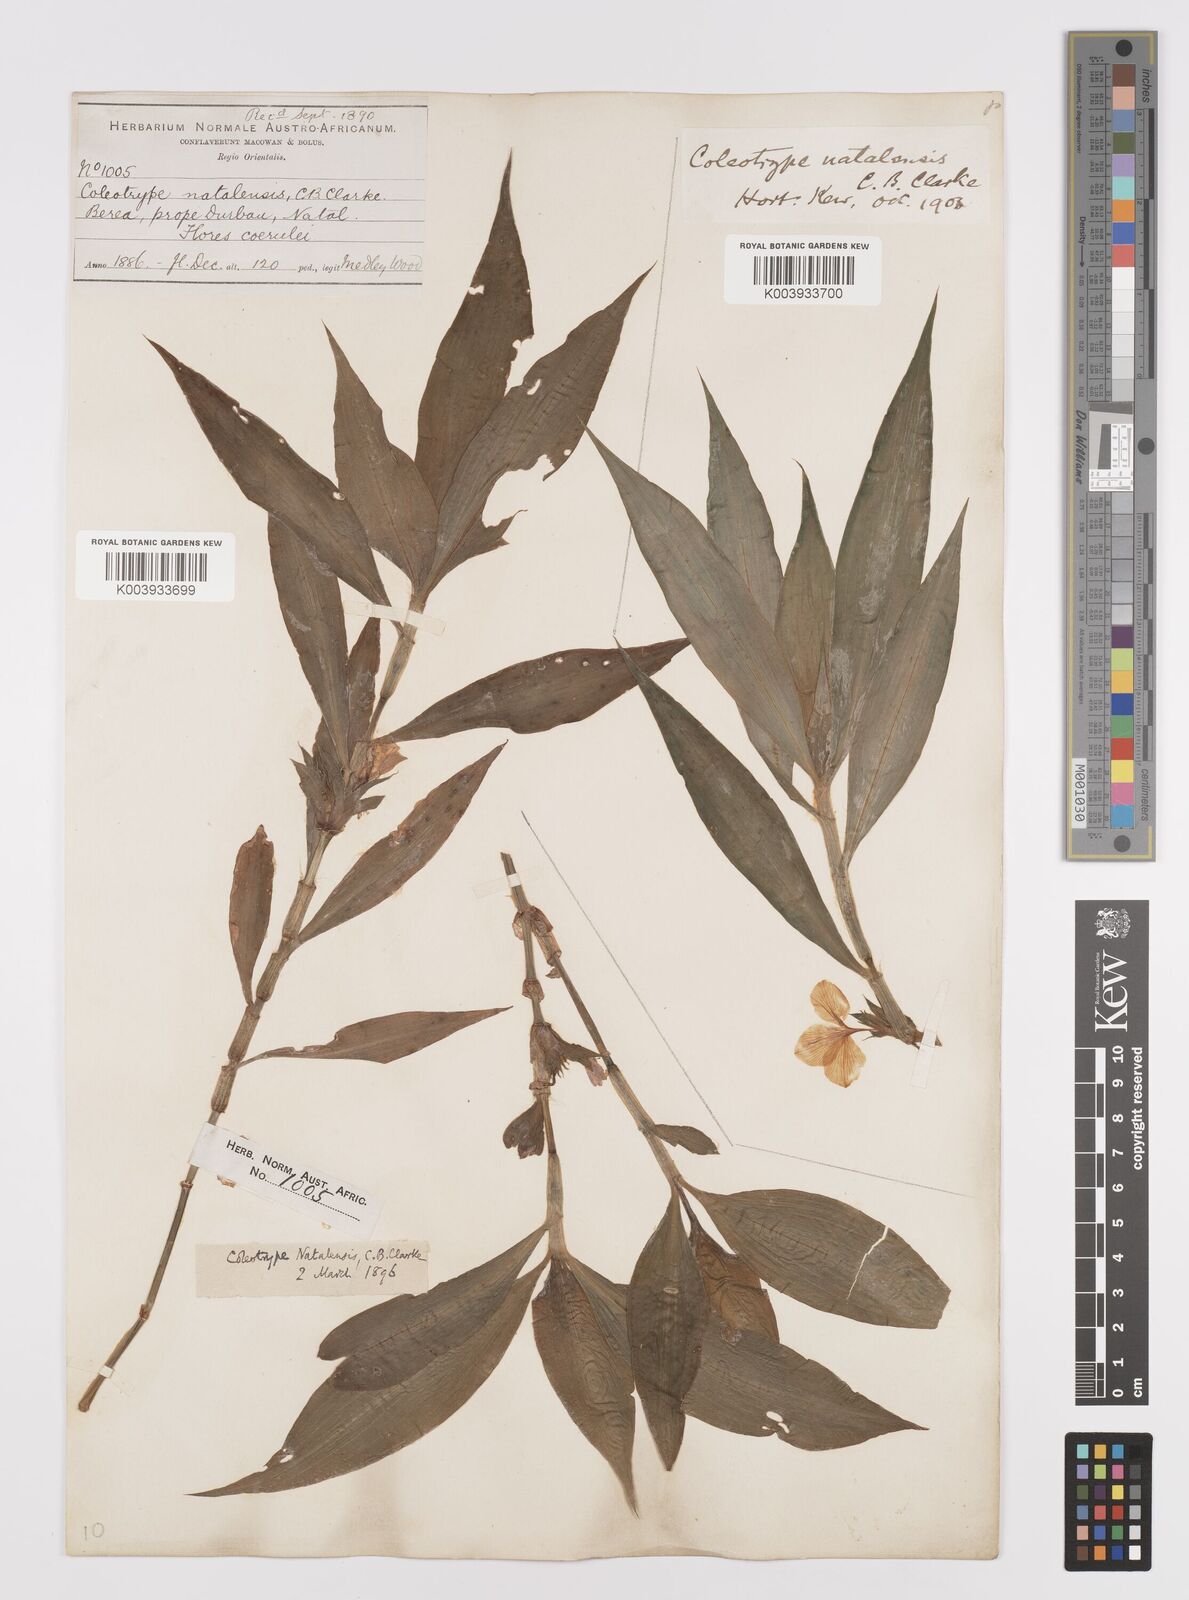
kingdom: Plantae
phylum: Tracheophyta
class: Liliopsida
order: Commelinales
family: Commelinaceae
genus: Coleotrype
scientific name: Coleotrype natalensis
